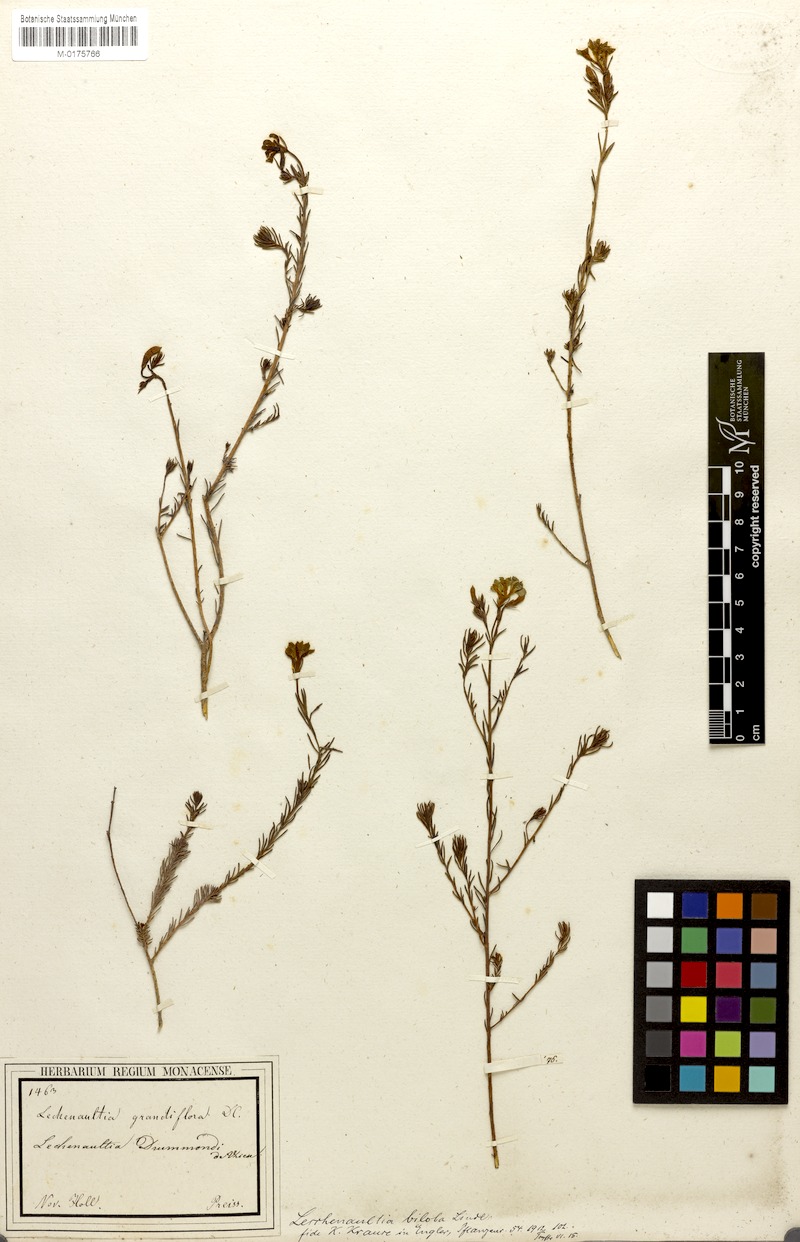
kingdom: Plantae
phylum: Tracheophyta
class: Magnoliopsida
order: Asterales
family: Goodeniaceae
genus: Lechenaultia
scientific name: Lechenaultia biloba
